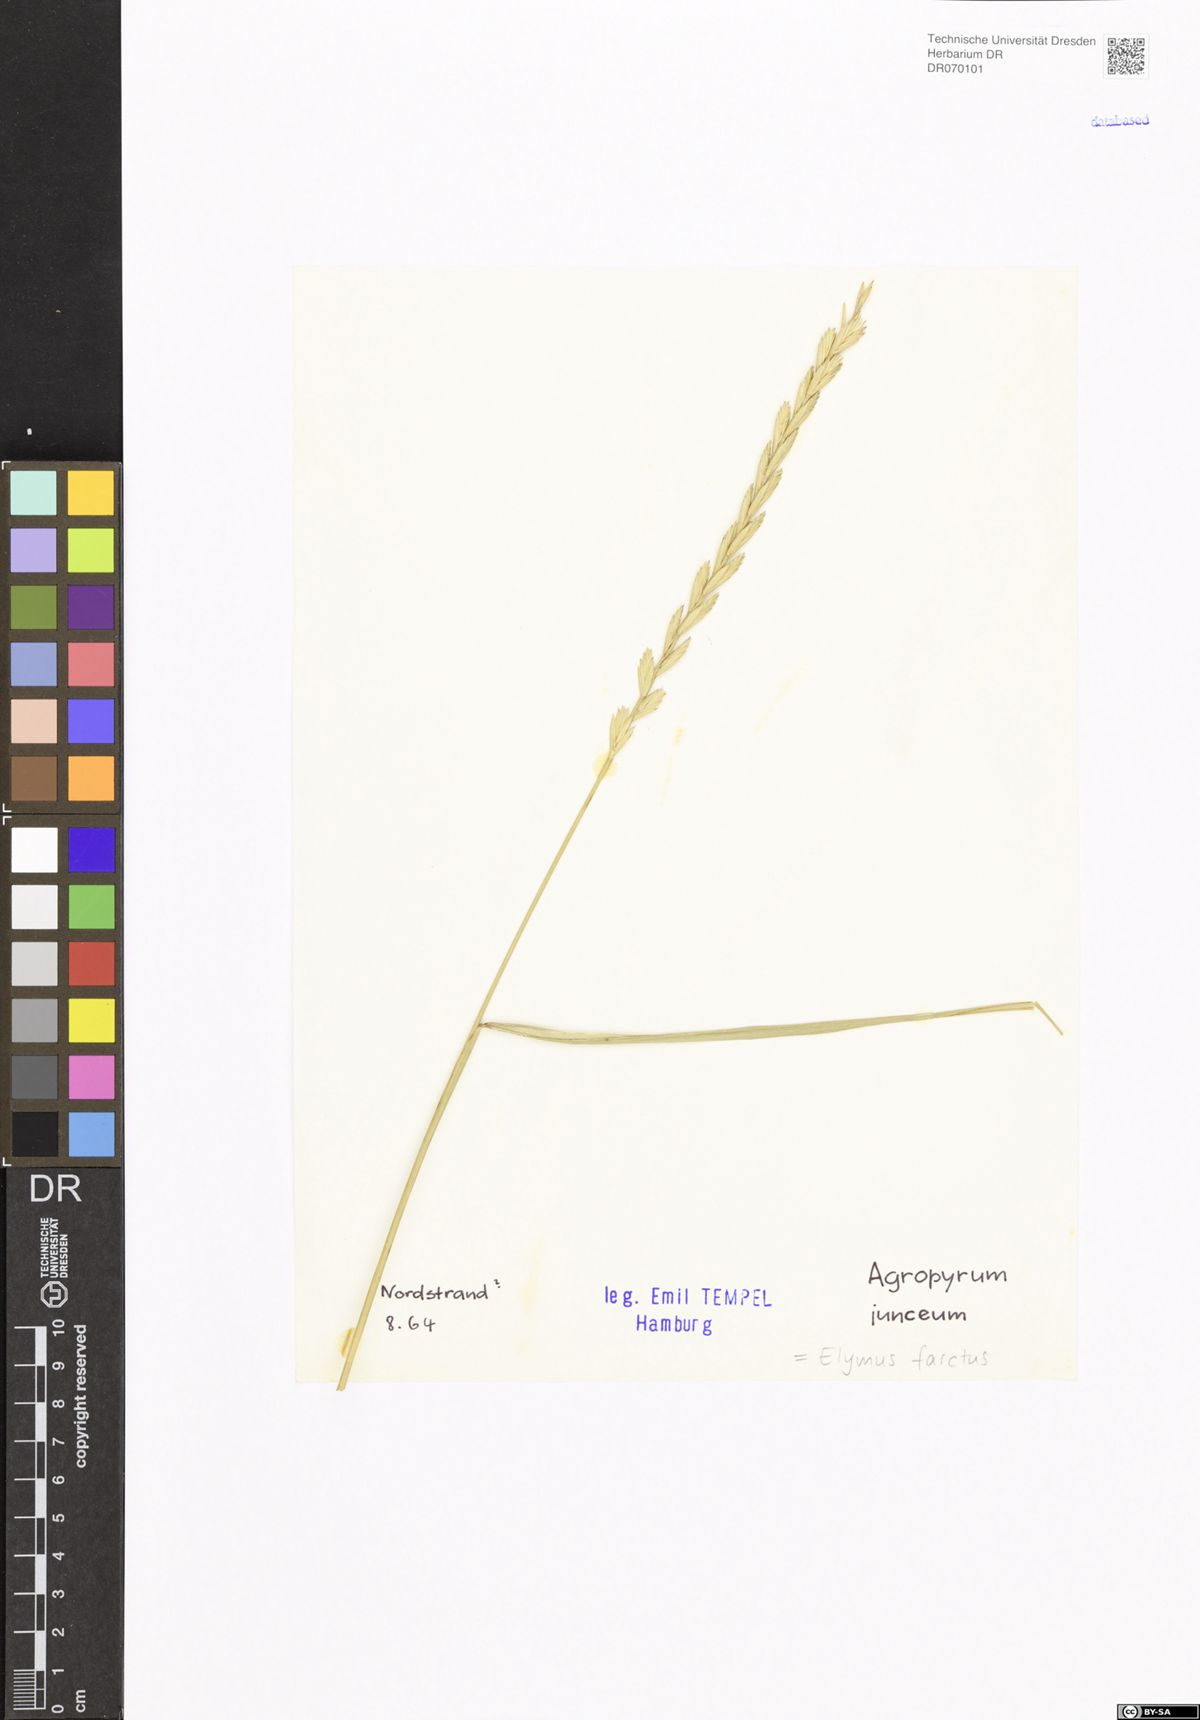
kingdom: Plantae
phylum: Tracheophyta
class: Liliopsida
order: Poales
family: Poaceae
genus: Thinopyrum
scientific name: Thinopyrum junceum
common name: Russian wheatgrass
